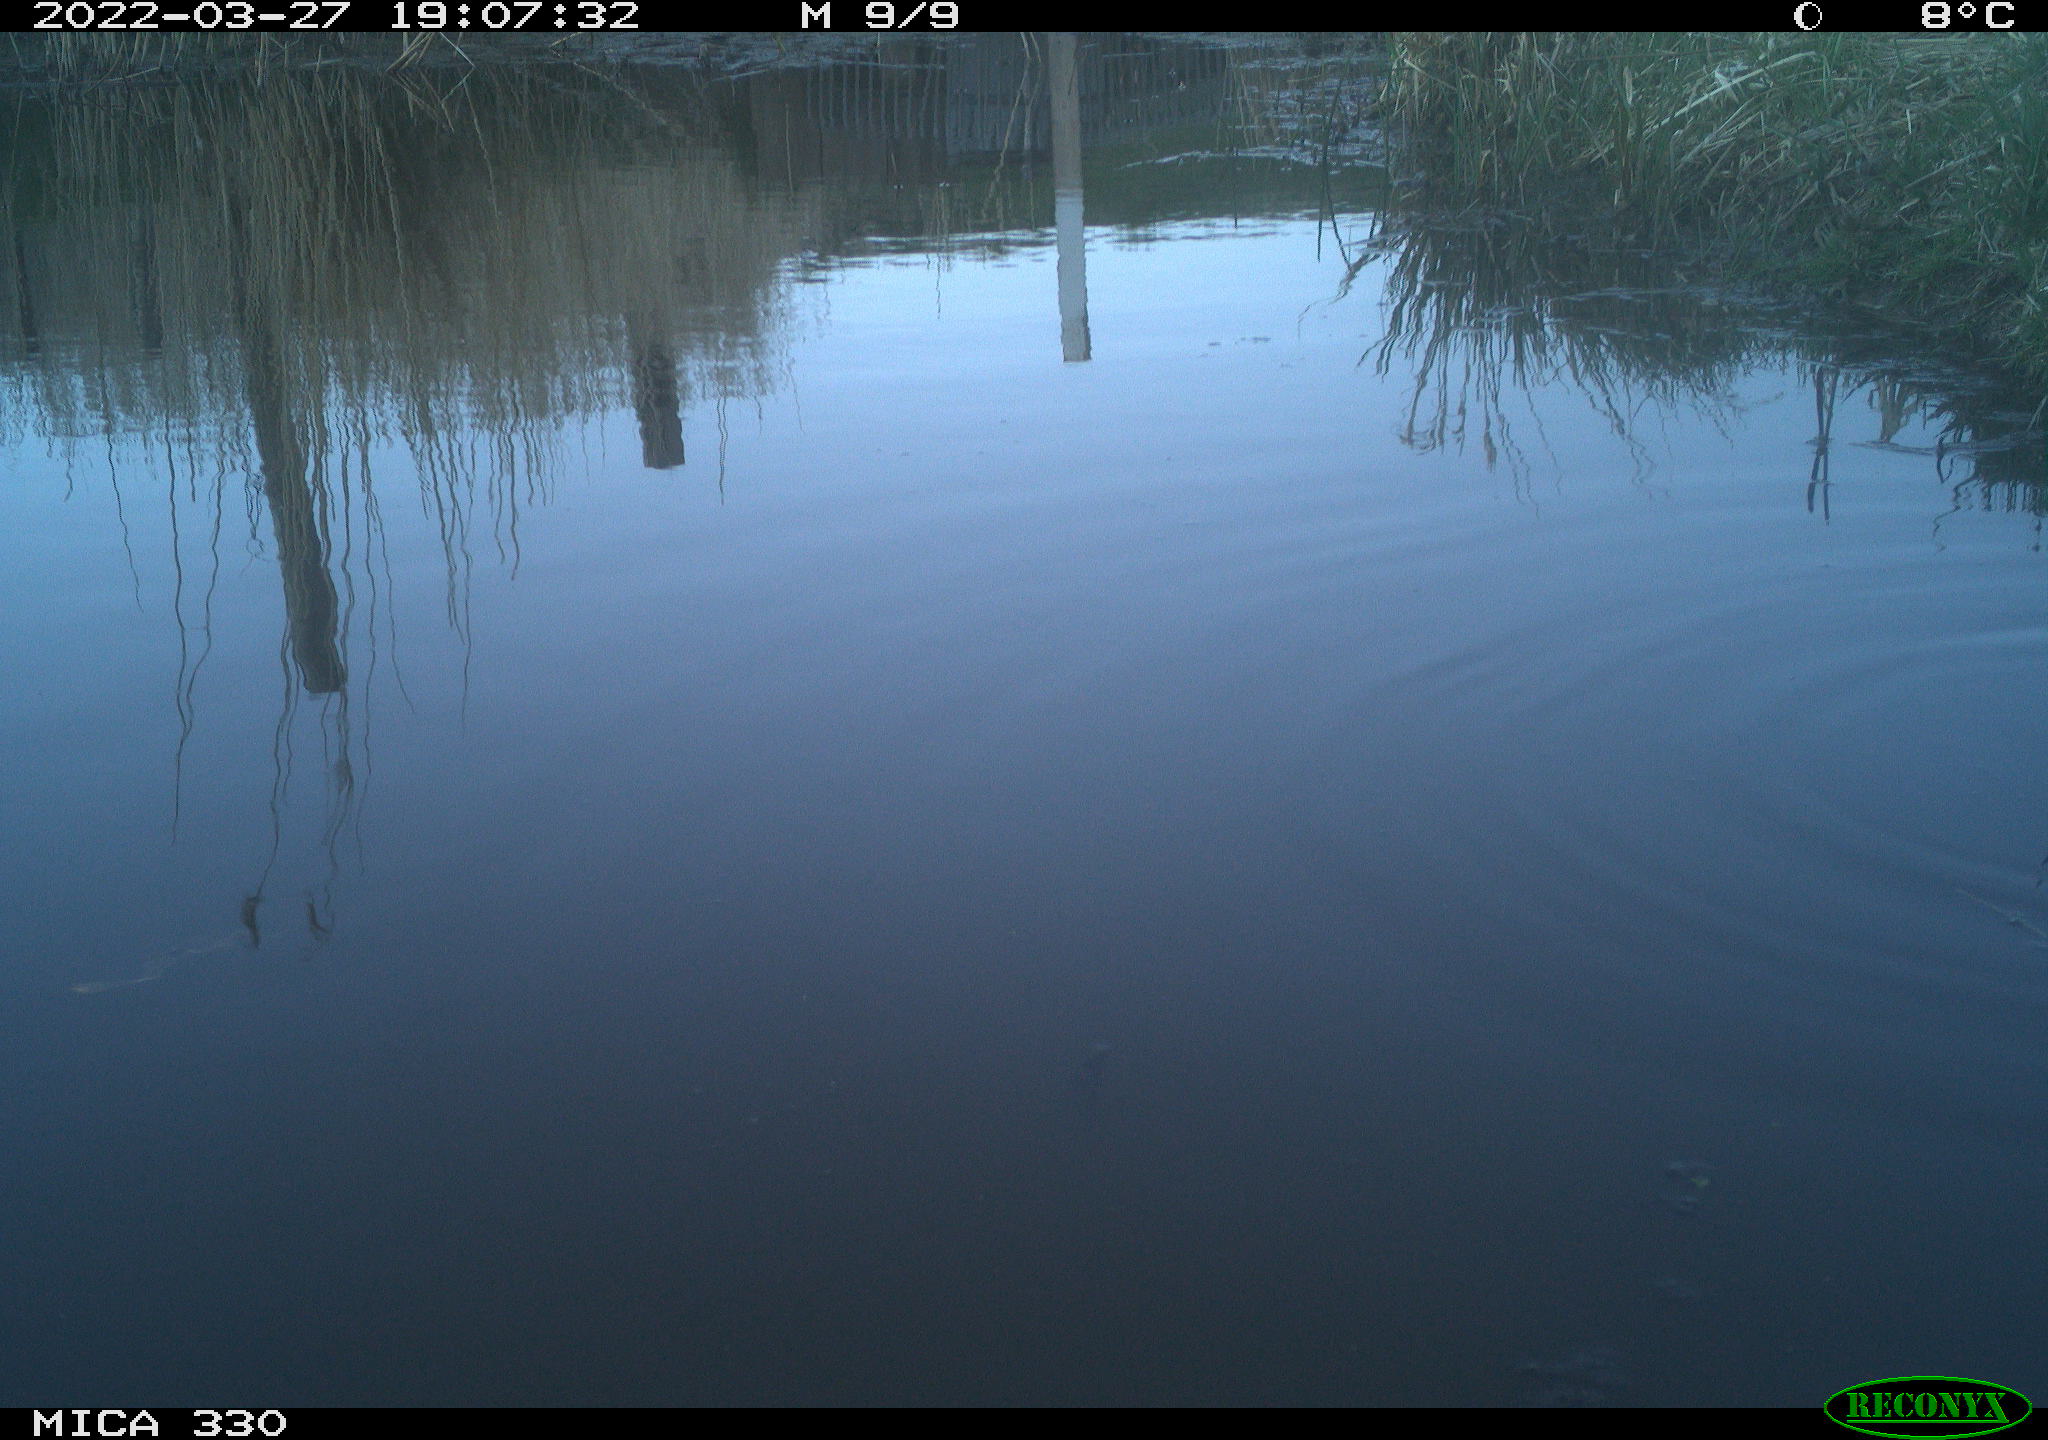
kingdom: Animalia
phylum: Chordata
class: Aves
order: Gruiformes
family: Rallidae
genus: Gallinula
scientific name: Gallinula chloropus
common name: Common moorhen
